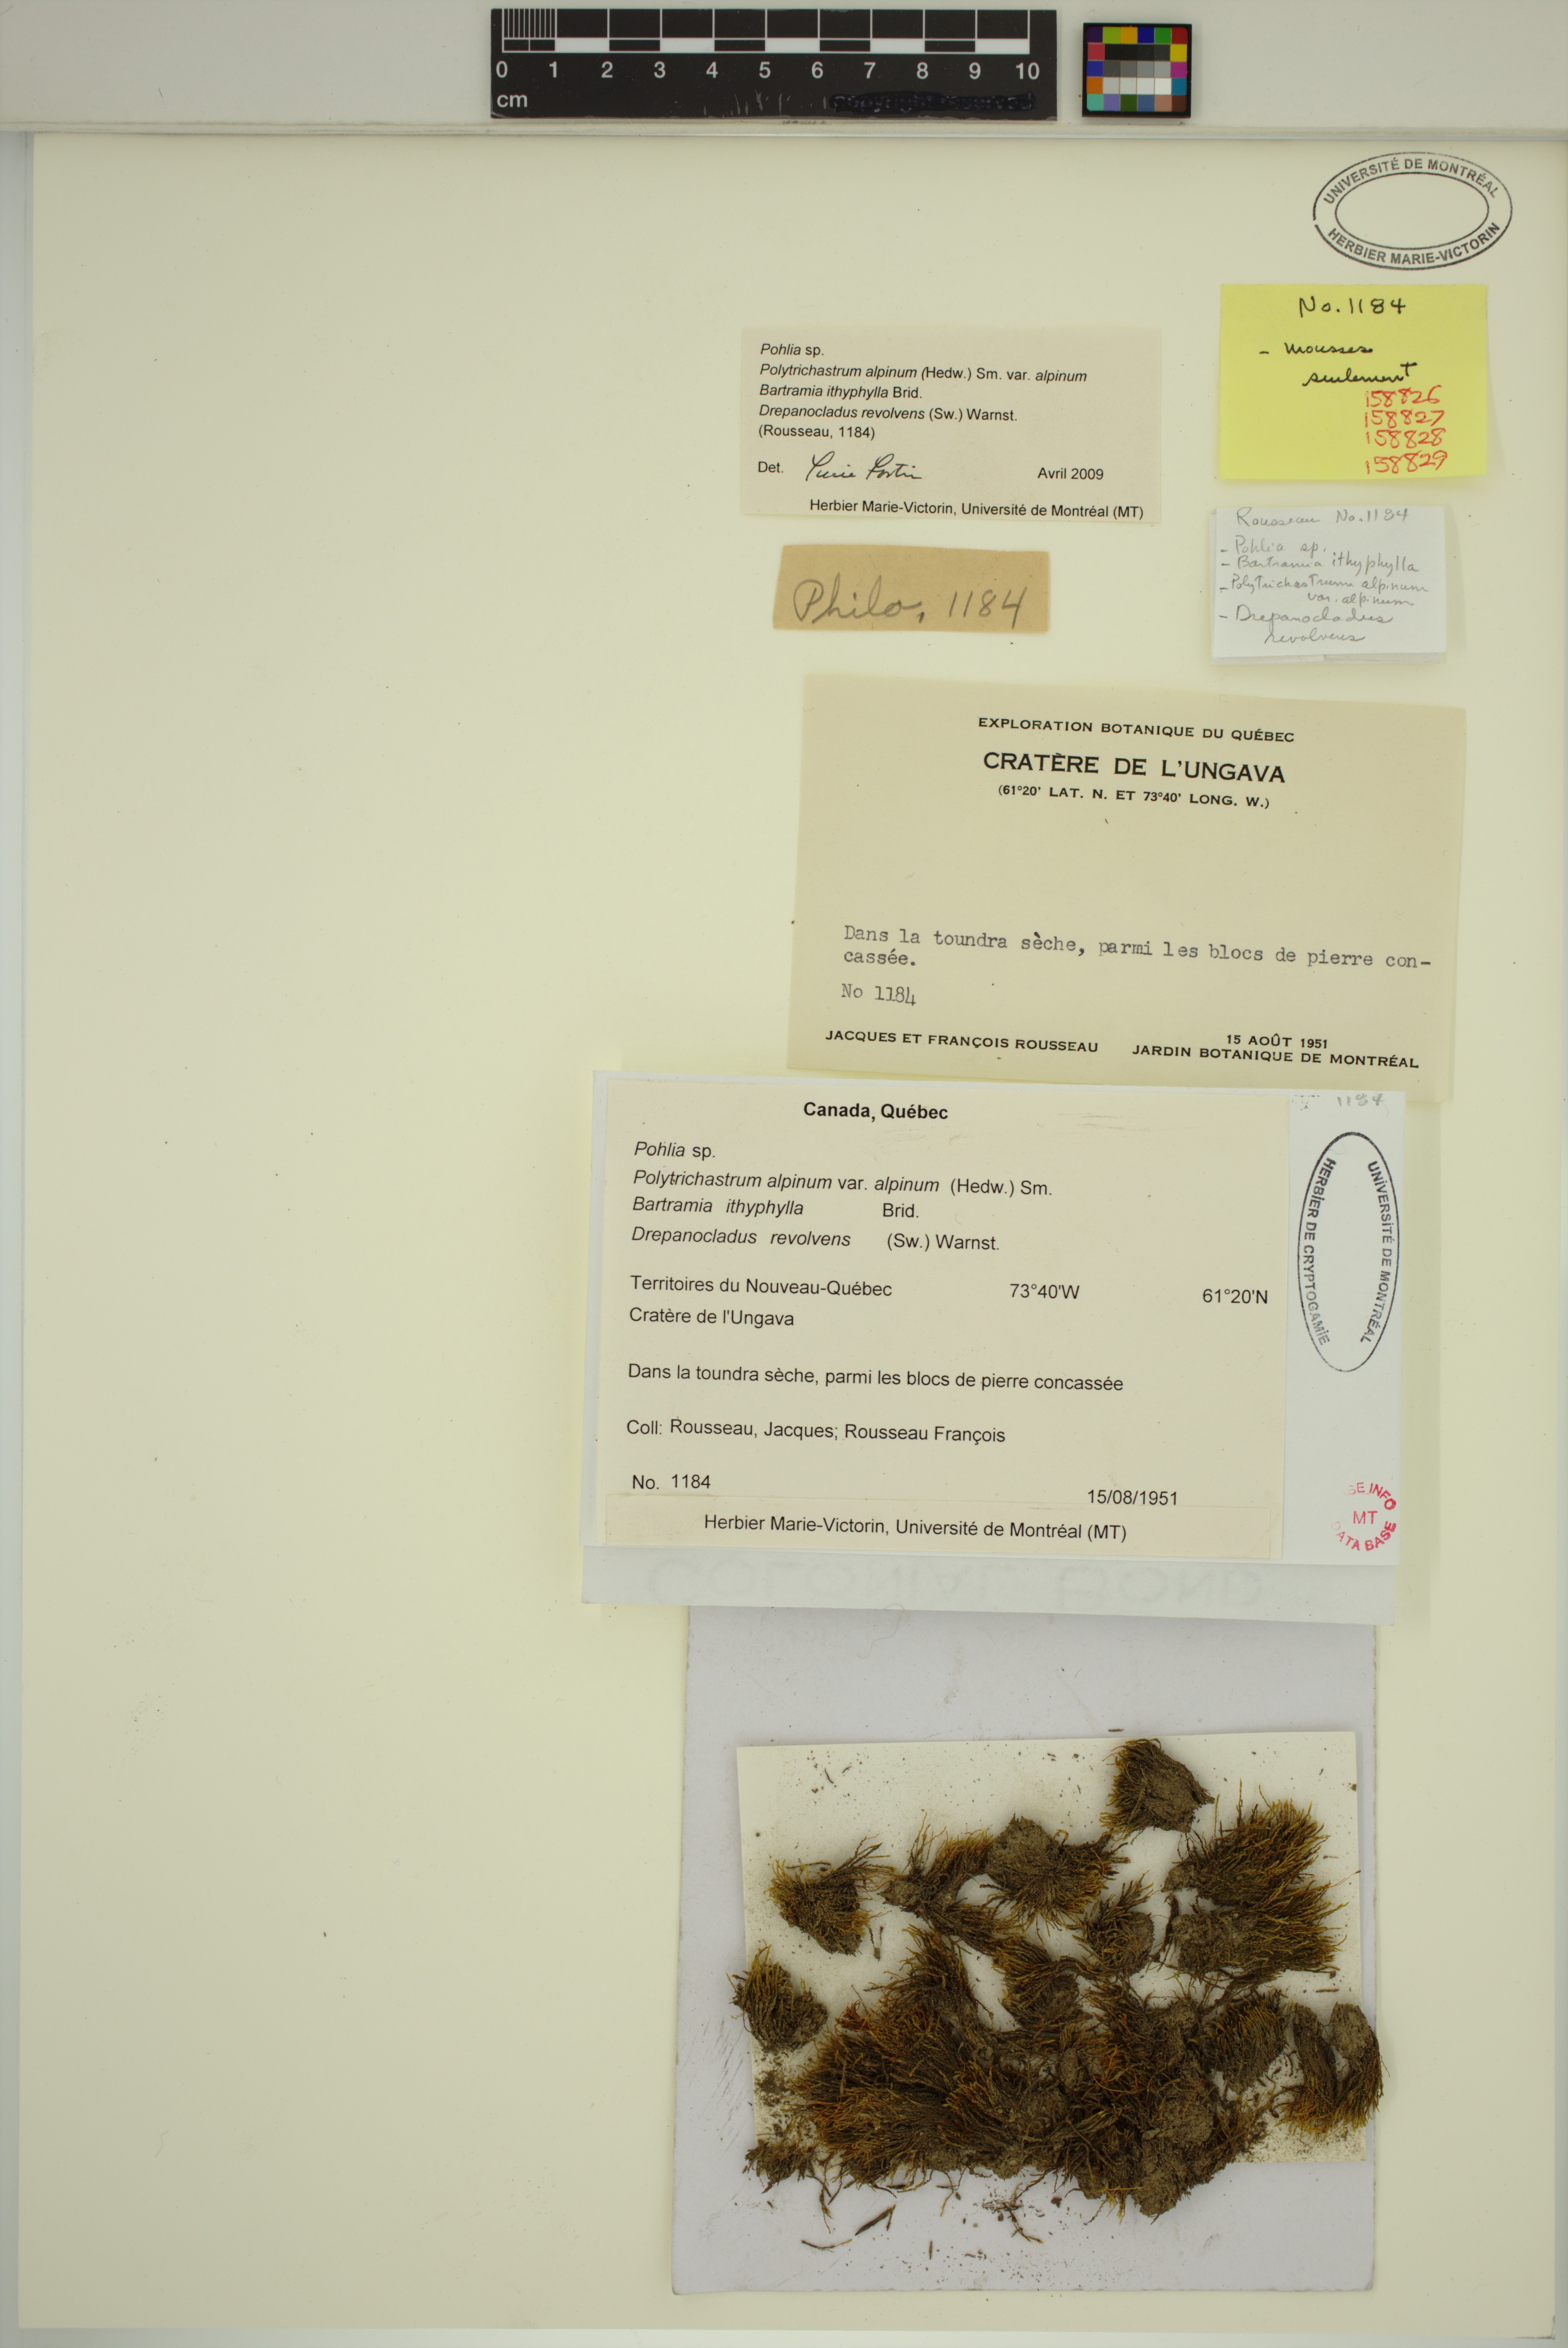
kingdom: Plantae
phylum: Bryophyta
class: Bryopsida
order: Bryales
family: Mniaceae
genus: Pohlia
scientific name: Pohlia
